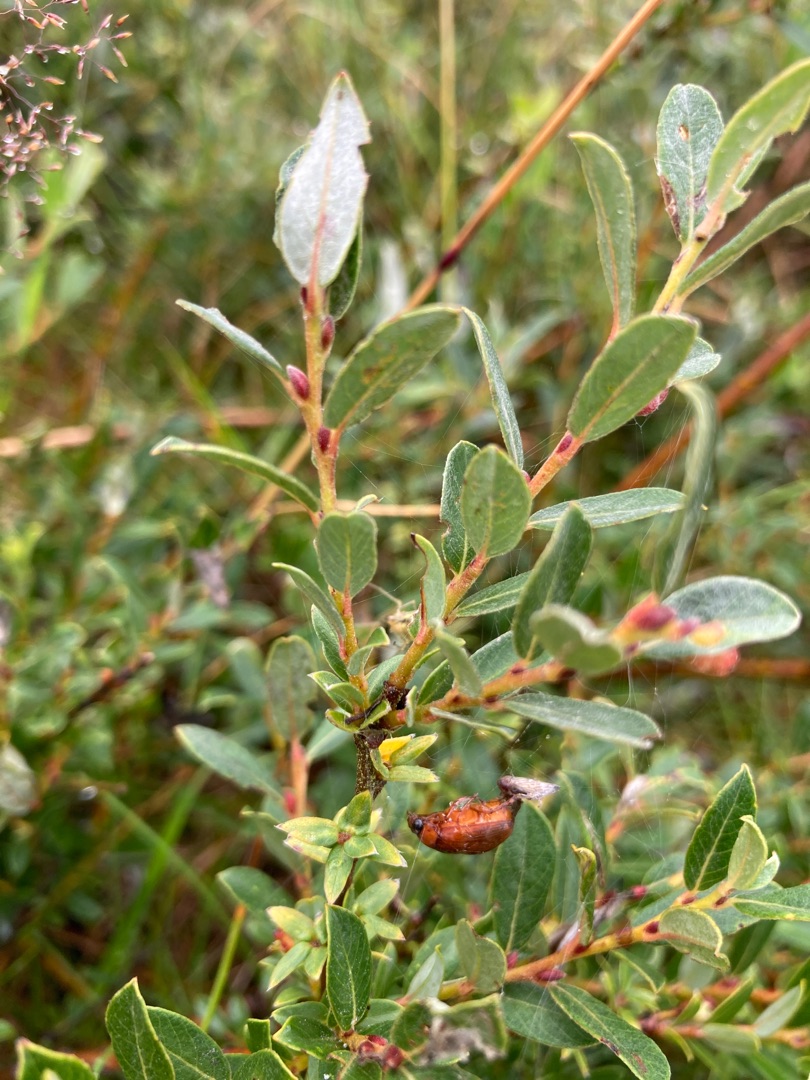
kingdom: Plantae
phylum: Tracheophyta
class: Magnoliopsida
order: Malpighiales
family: Salicaceae
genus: Salix
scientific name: Salix repens
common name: Krybende pil
